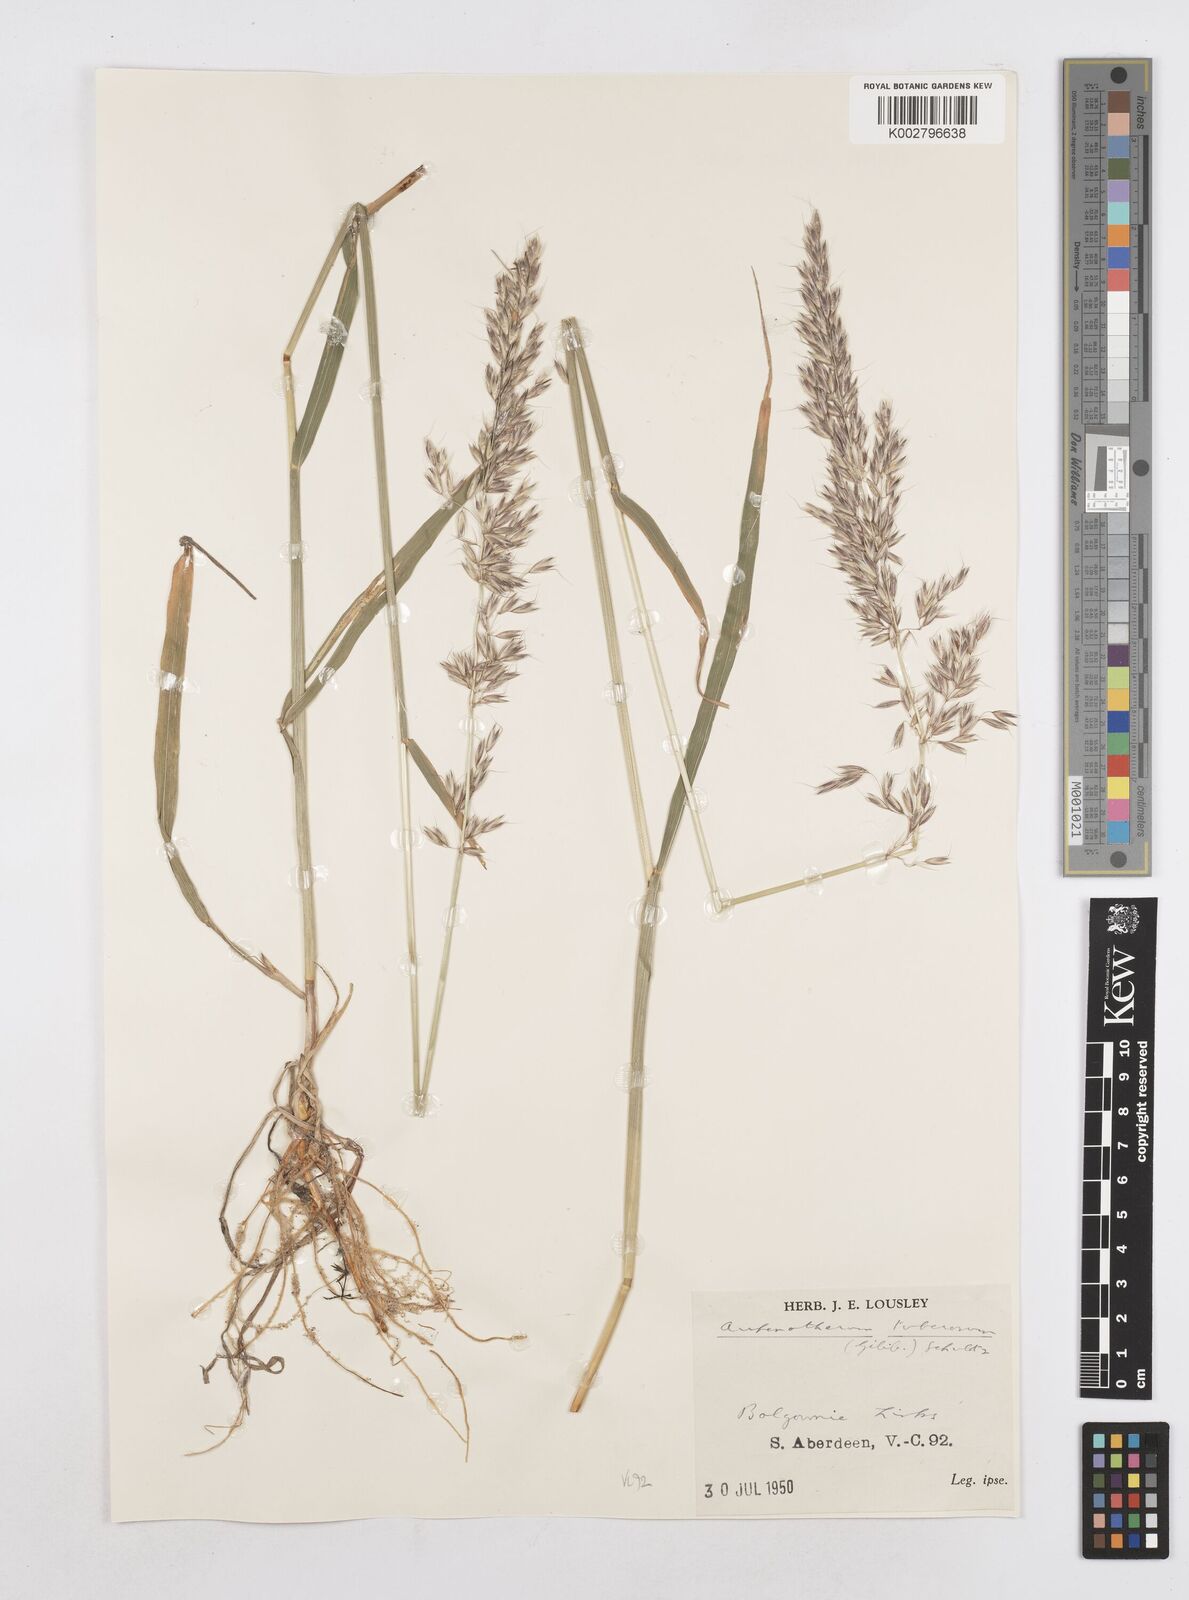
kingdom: Plantae
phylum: Tracheophyta
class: Liliopsida
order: Poales
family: Poaceae
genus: Arrhenatherum
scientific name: Arrhenatherum elatius
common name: Tall oatgrass
